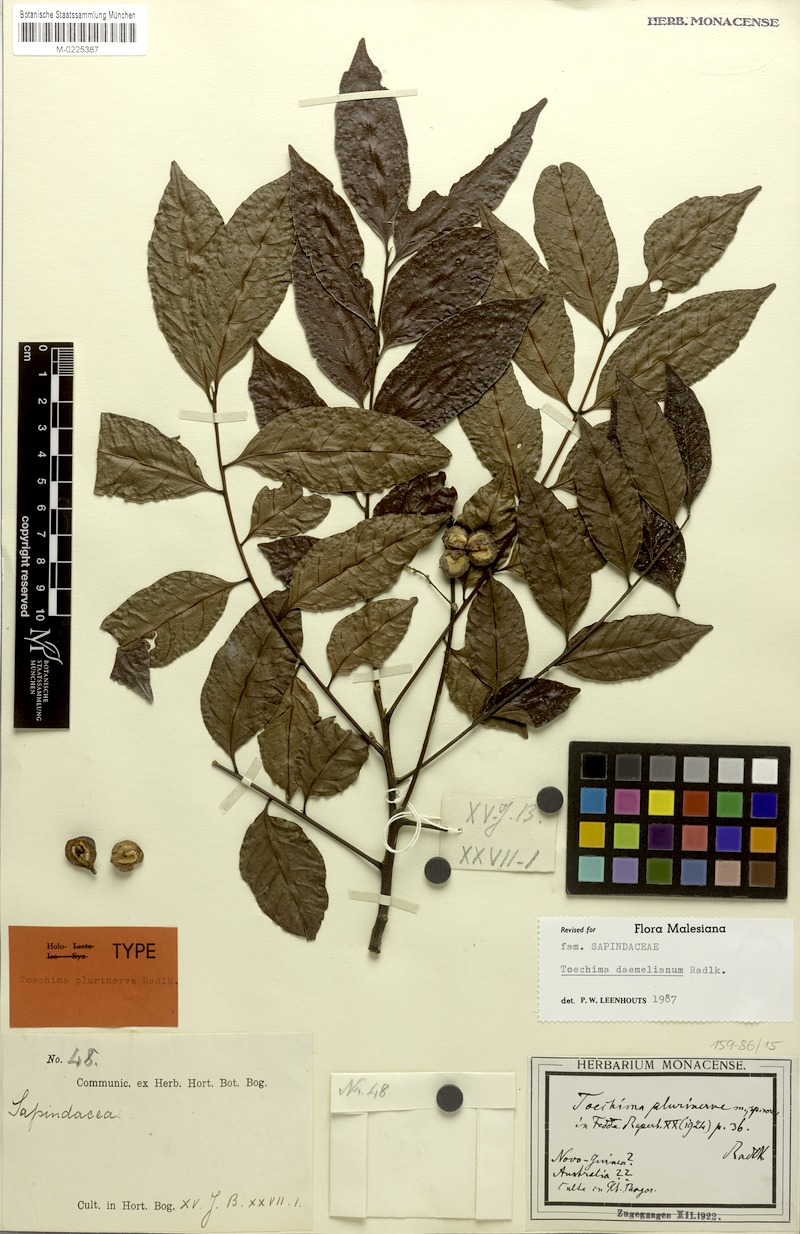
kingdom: Plantae
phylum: Tracheophyta
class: Magnoliopsida
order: Sapindales
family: Sapindaceae
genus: Toechima
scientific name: Toechima daemelianum
